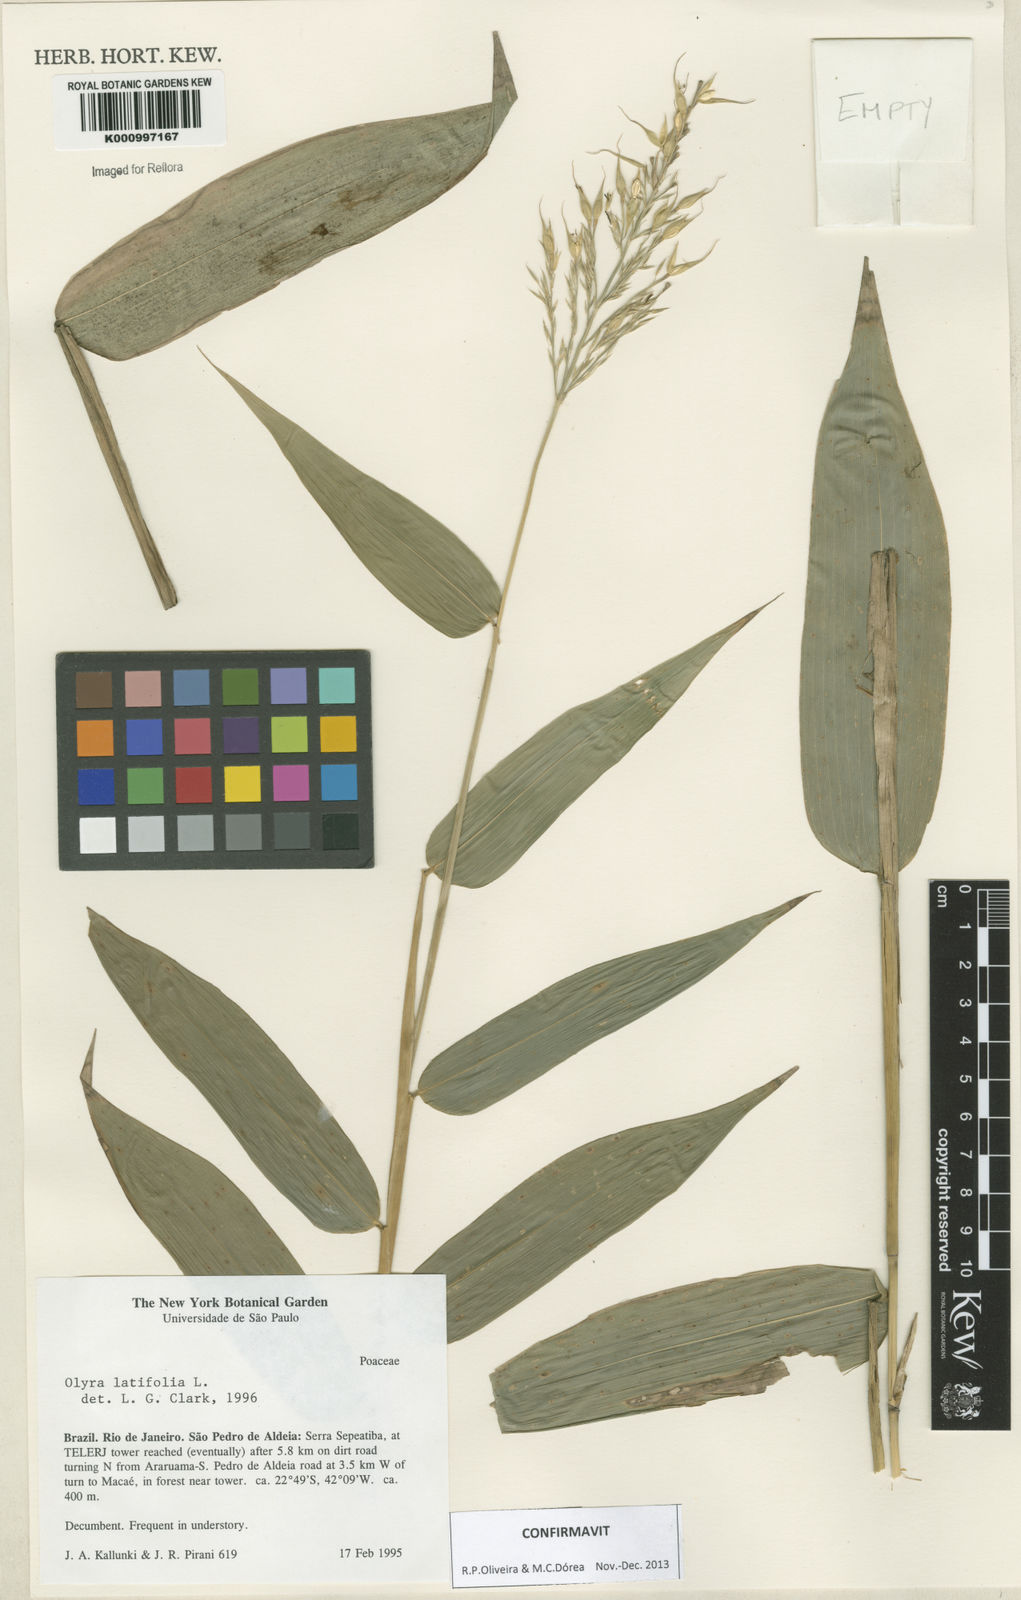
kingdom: Plantae
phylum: Tracheophyta
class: Liliopsida
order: Poales
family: Poaceae
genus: Olyra
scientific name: Olyra latifolia
